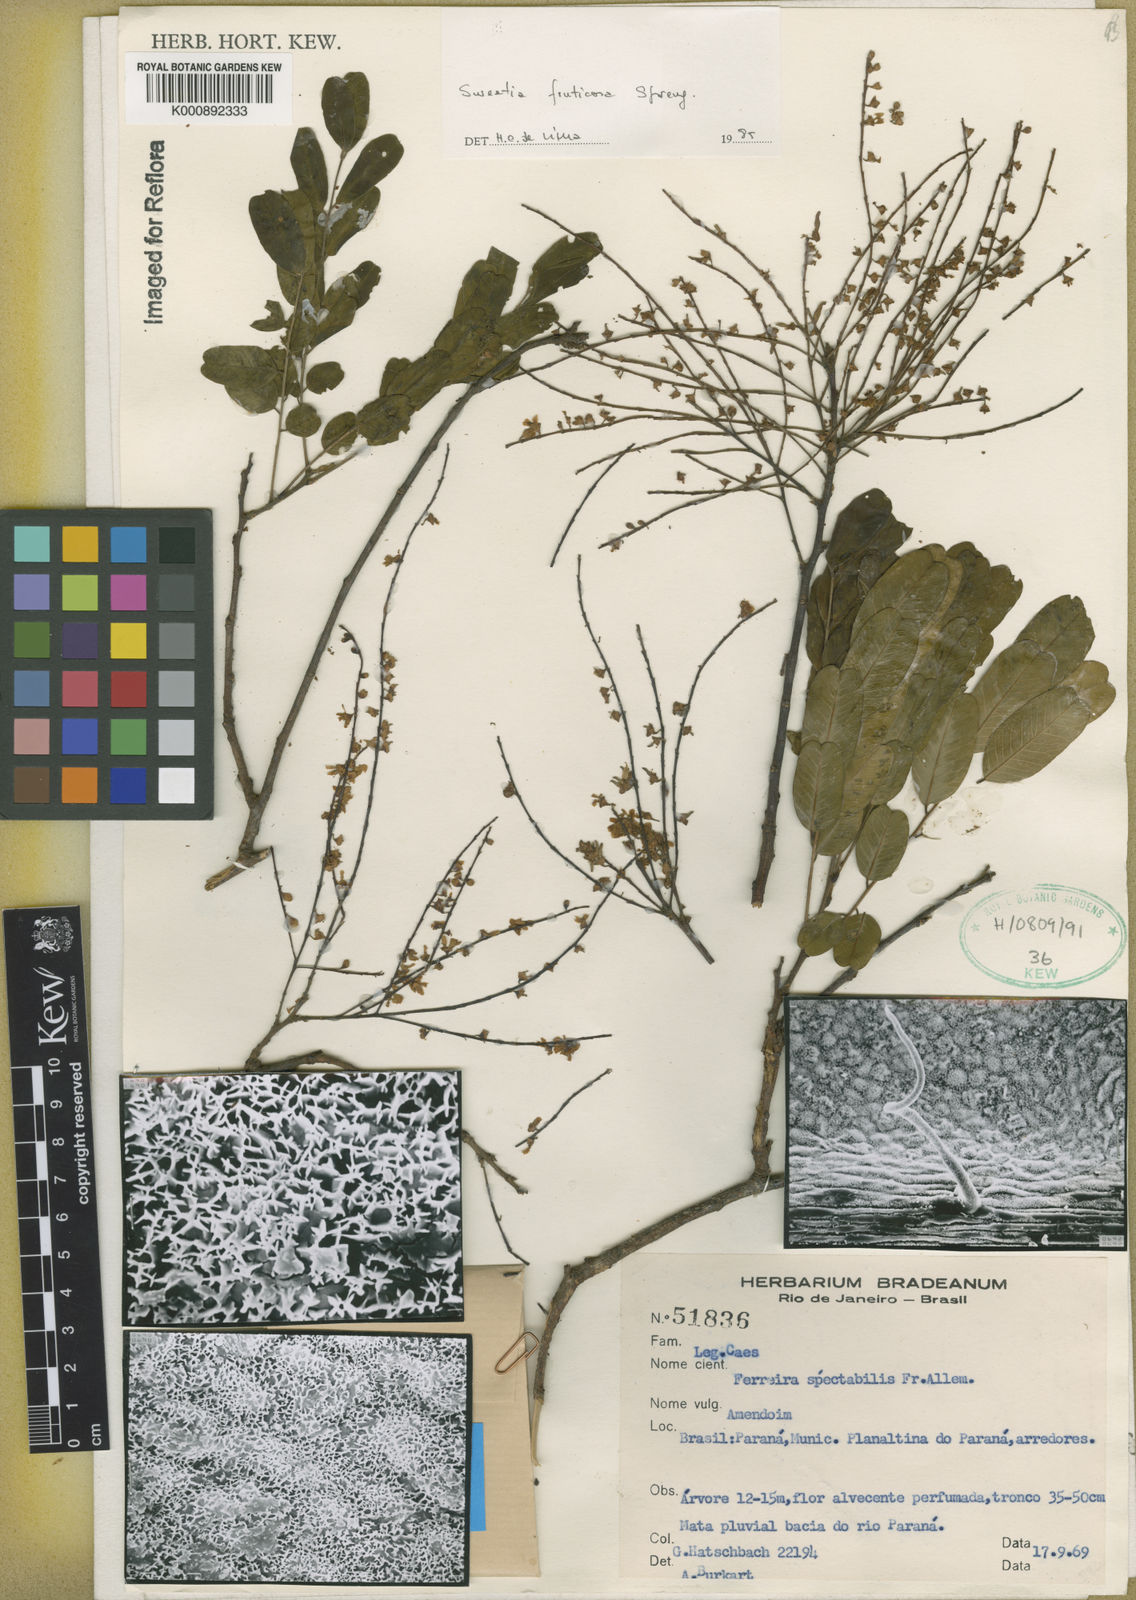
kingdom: Plantae
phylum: Tracheophyta
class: Magnoliopsida
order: Fabales
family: Fabaceae
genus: Sweetia
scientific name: Sweetia fruticosa
